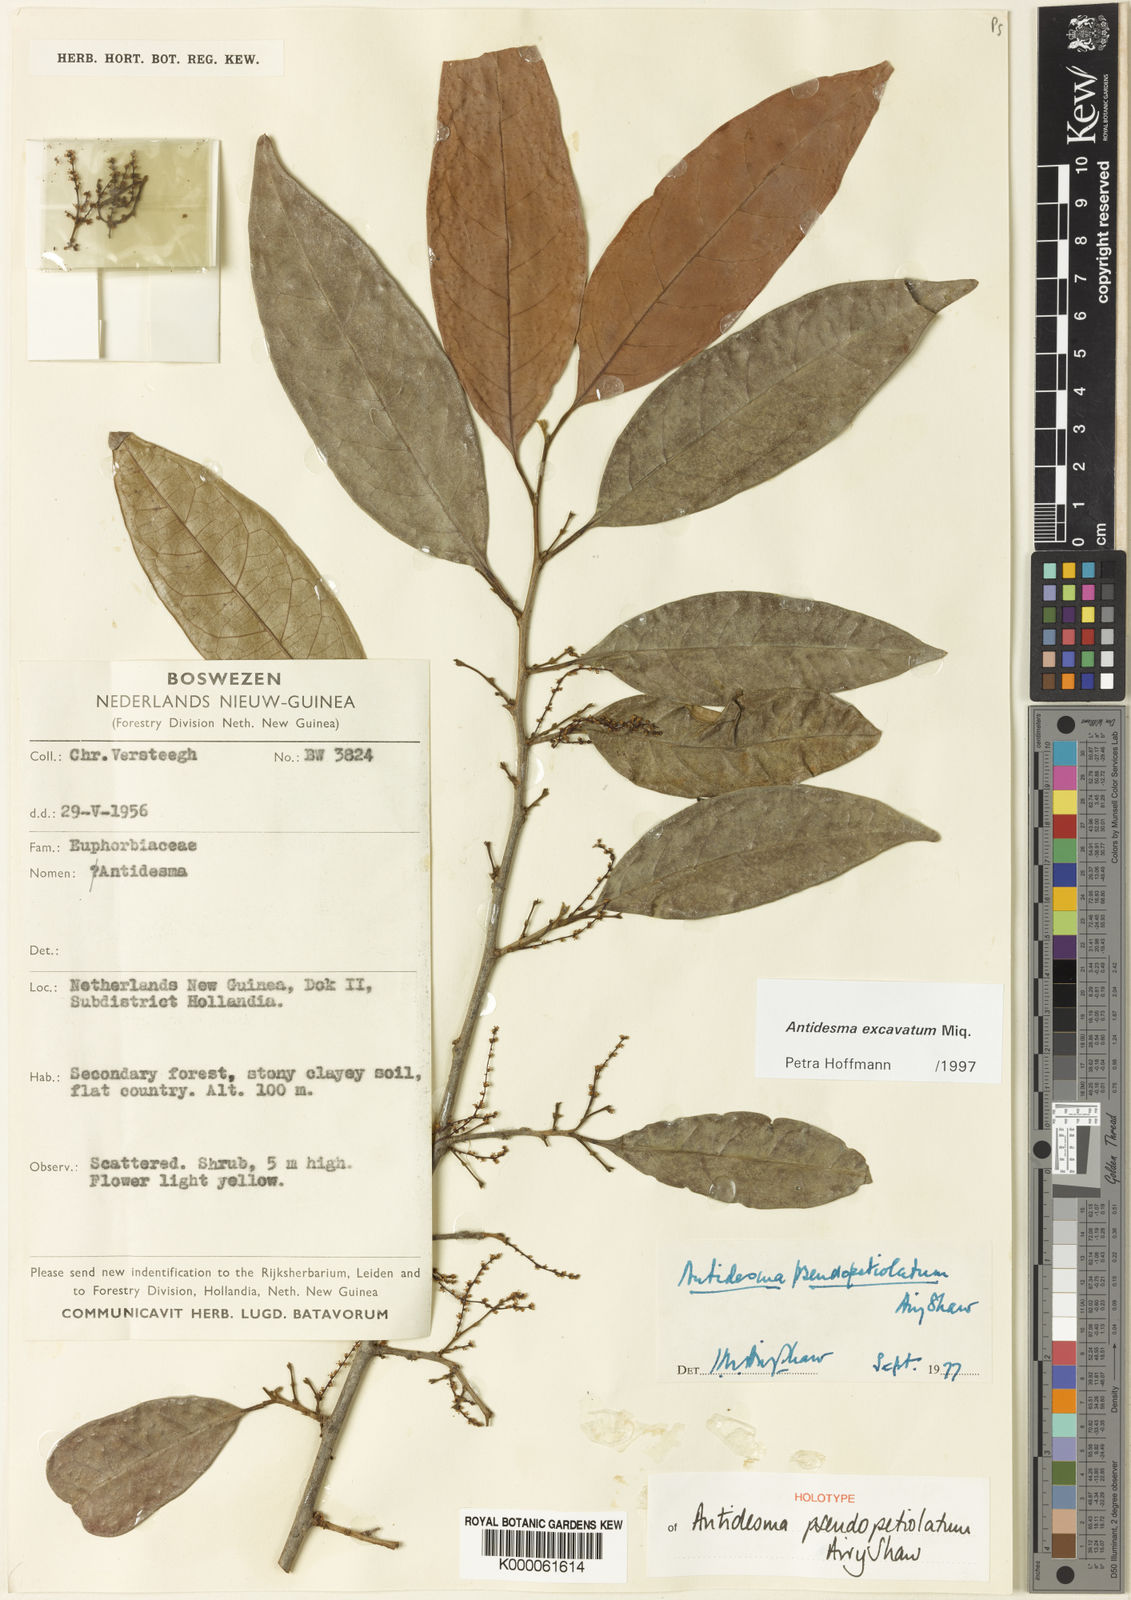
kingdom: Plantae
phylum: Tracheophyta
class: Magnoliopsida
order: Malpighiales
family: Phyllanthaceae
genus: Antidesma
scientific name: Antidesma excavatum
